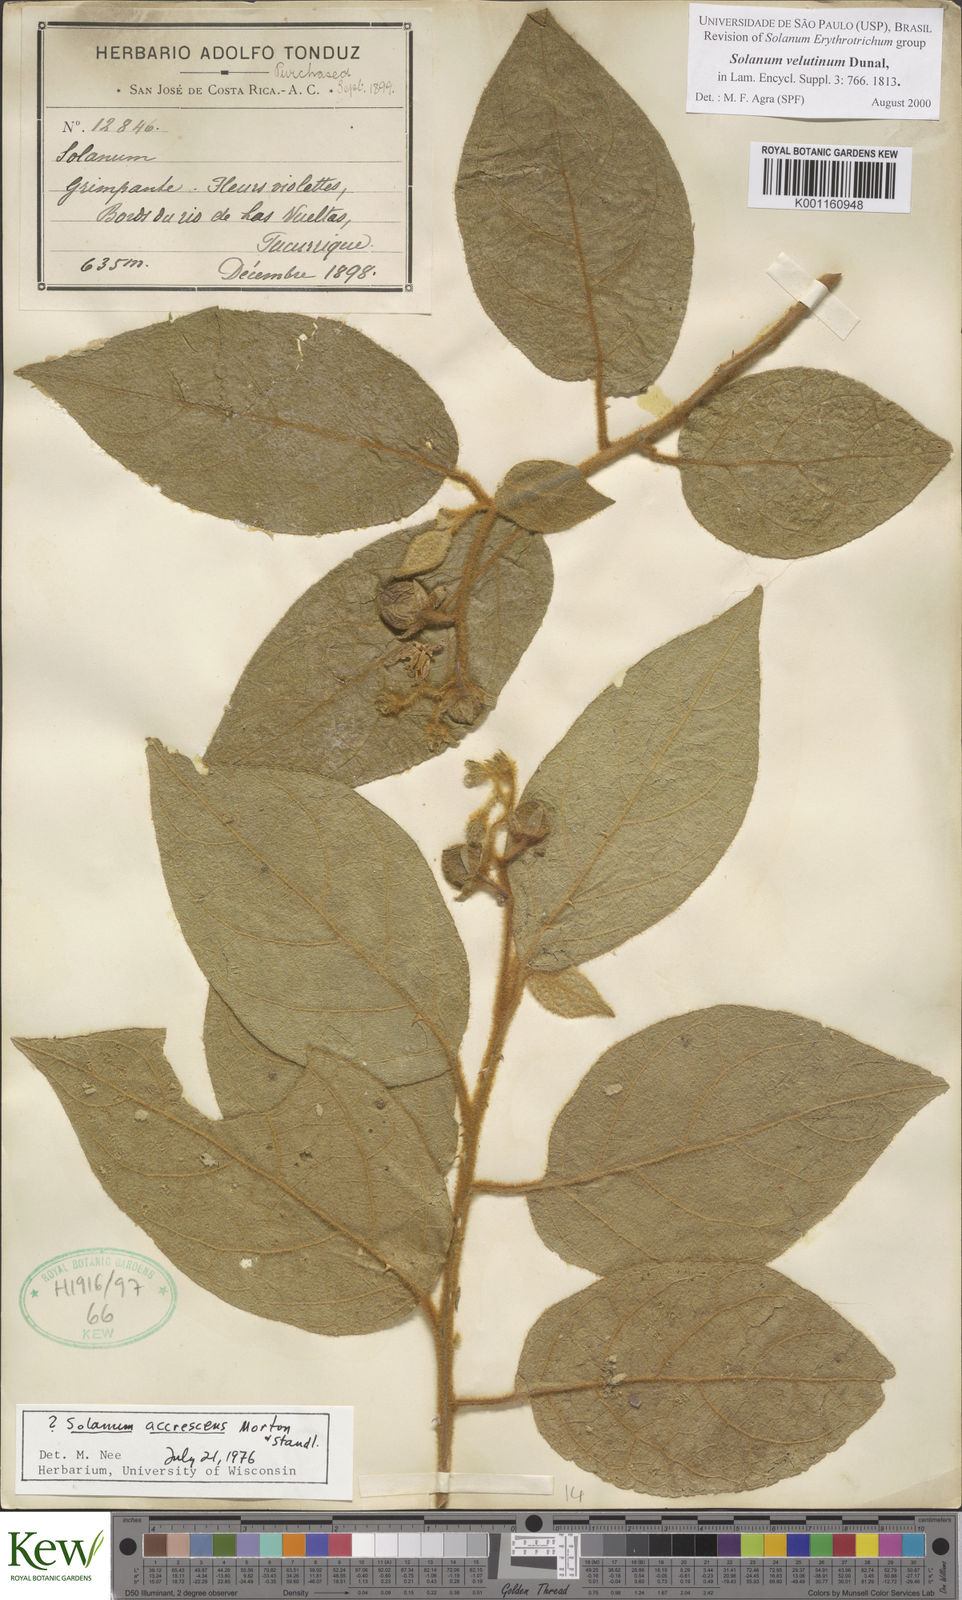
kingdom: Plantae
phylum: Tracheophyta
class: Magnoliopsida
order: Solanales
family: Solanaceae
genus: Solanum
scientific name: Solanum velutinum
